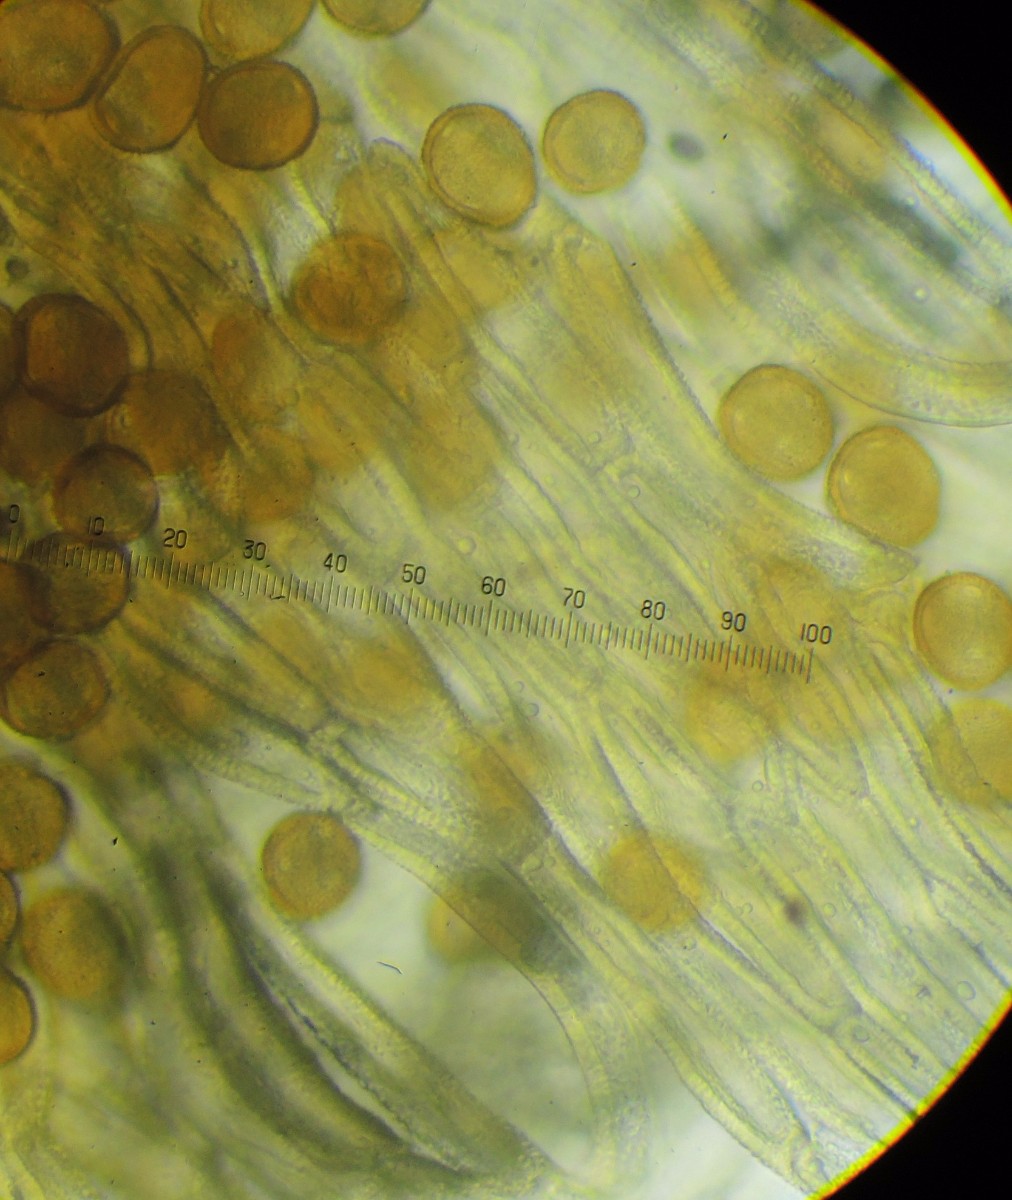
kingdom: Fungi
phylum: Basidiomycota
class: Pucciniomycetes
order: Pucciniales
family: Gymnosporangiaceae
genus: Gymnosporangium
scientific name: Gymnosporangium clavariiforme
